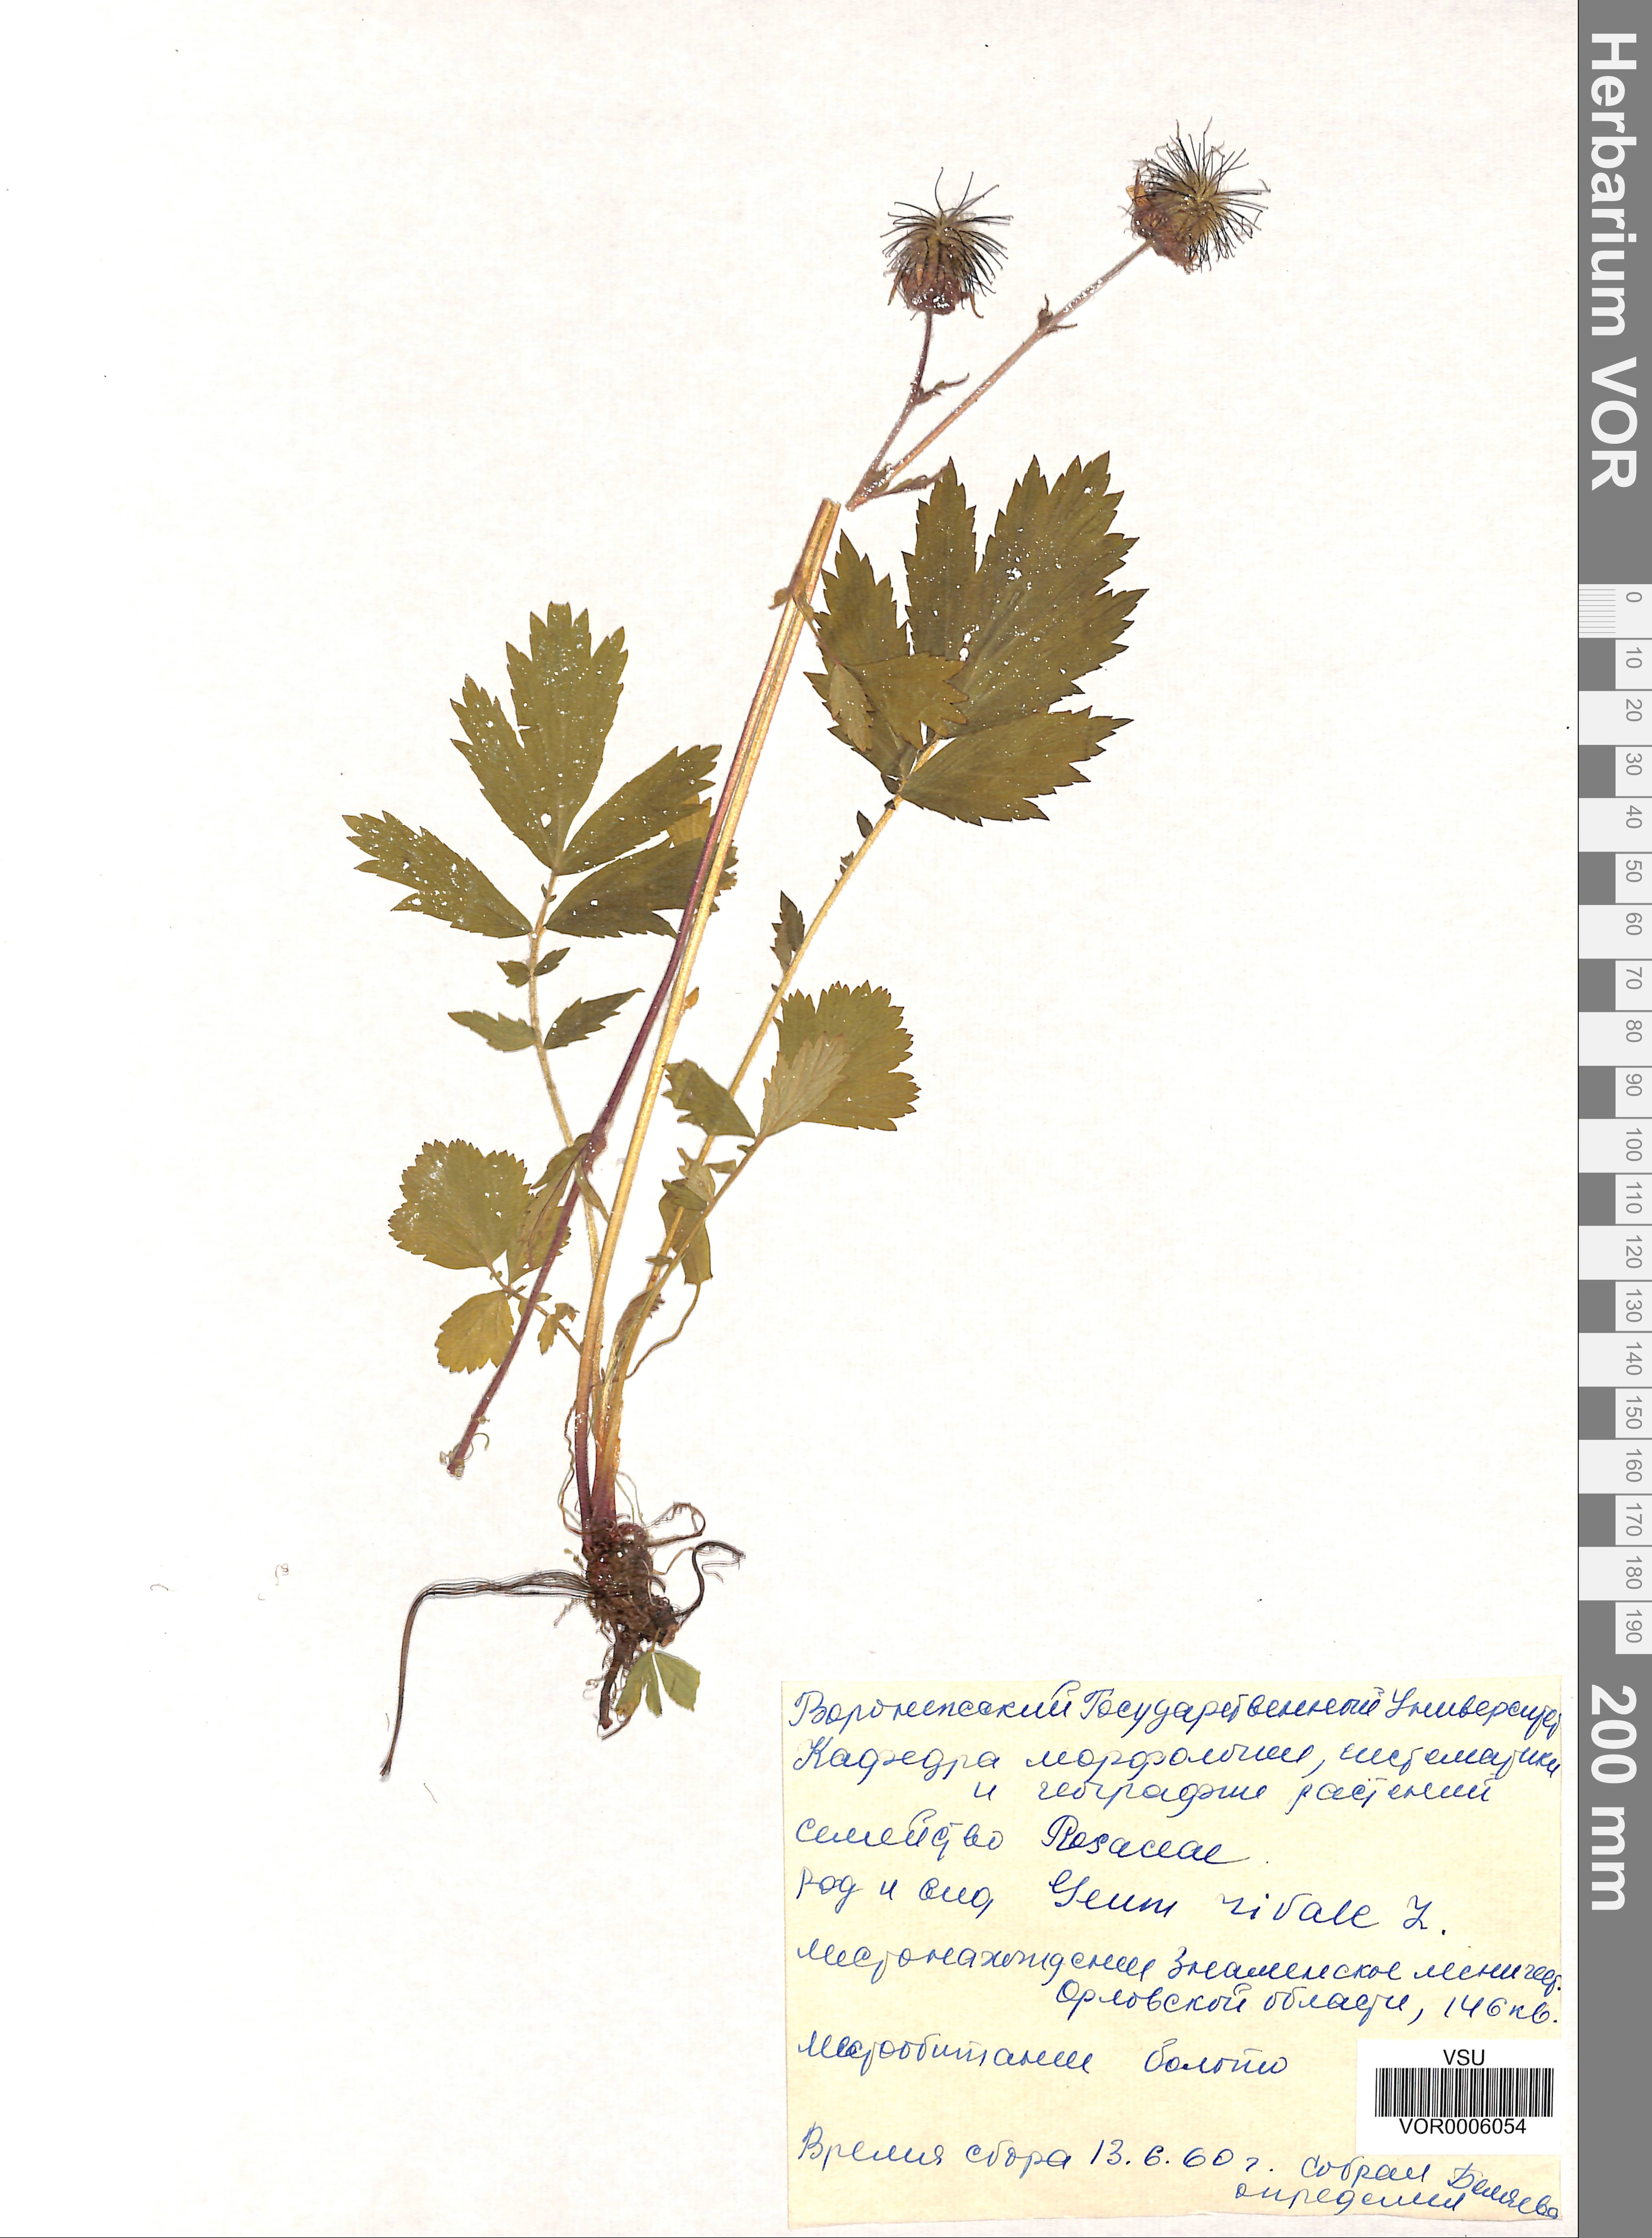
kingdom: Plantae
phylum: Tracheophyta
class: Magnoliopsida
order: Rosales
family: Rosaceae
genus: Geum
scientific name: Geum rivale
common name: Water avens
